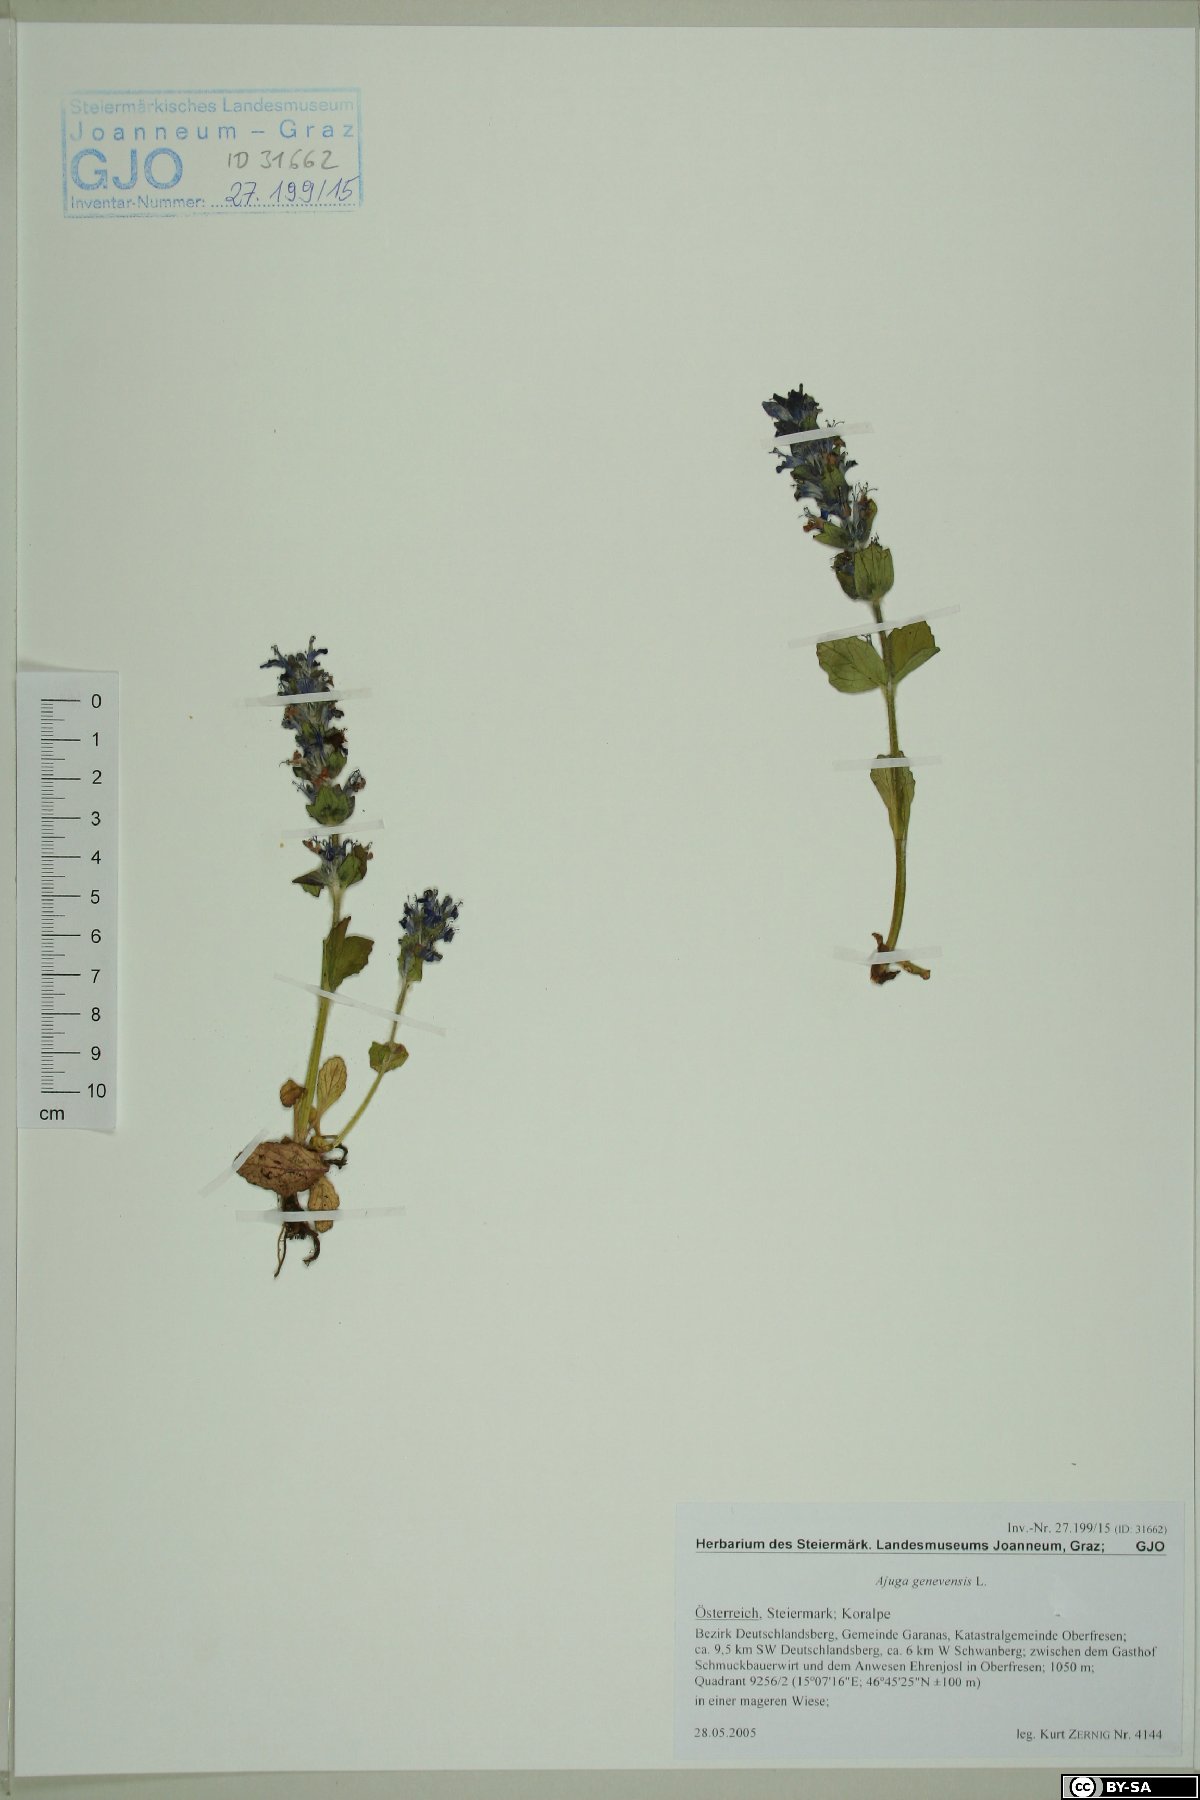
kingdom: Plantae
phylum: Tracheophyta
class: Magnoliopsida
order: Lamiales
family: Lamiaceae
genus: Ajuga
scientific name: Ajuga genevensis
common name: Blue bugle
